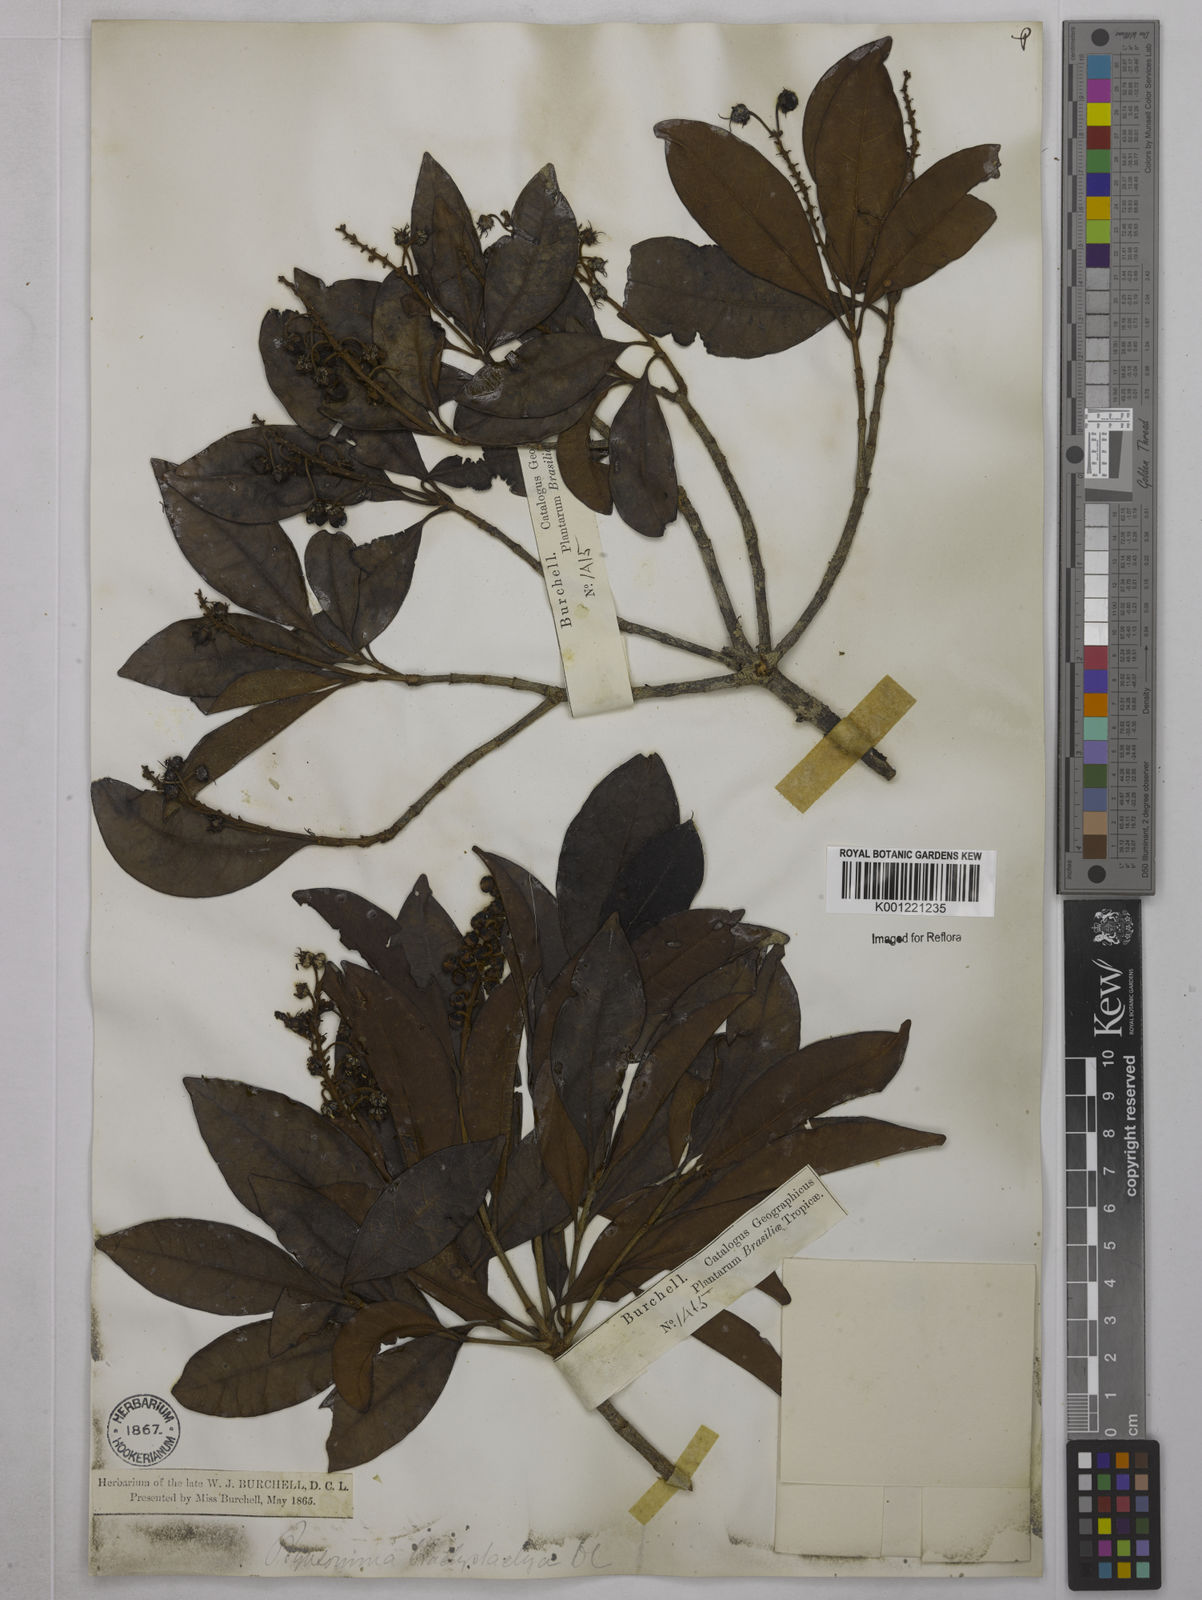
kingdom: Plantae
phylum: Tracheophyta
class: Magnoliopsida
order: Malpighiales
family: Malpighiaceae
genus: Byrsonima
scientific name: Byrsonima brachystachya
